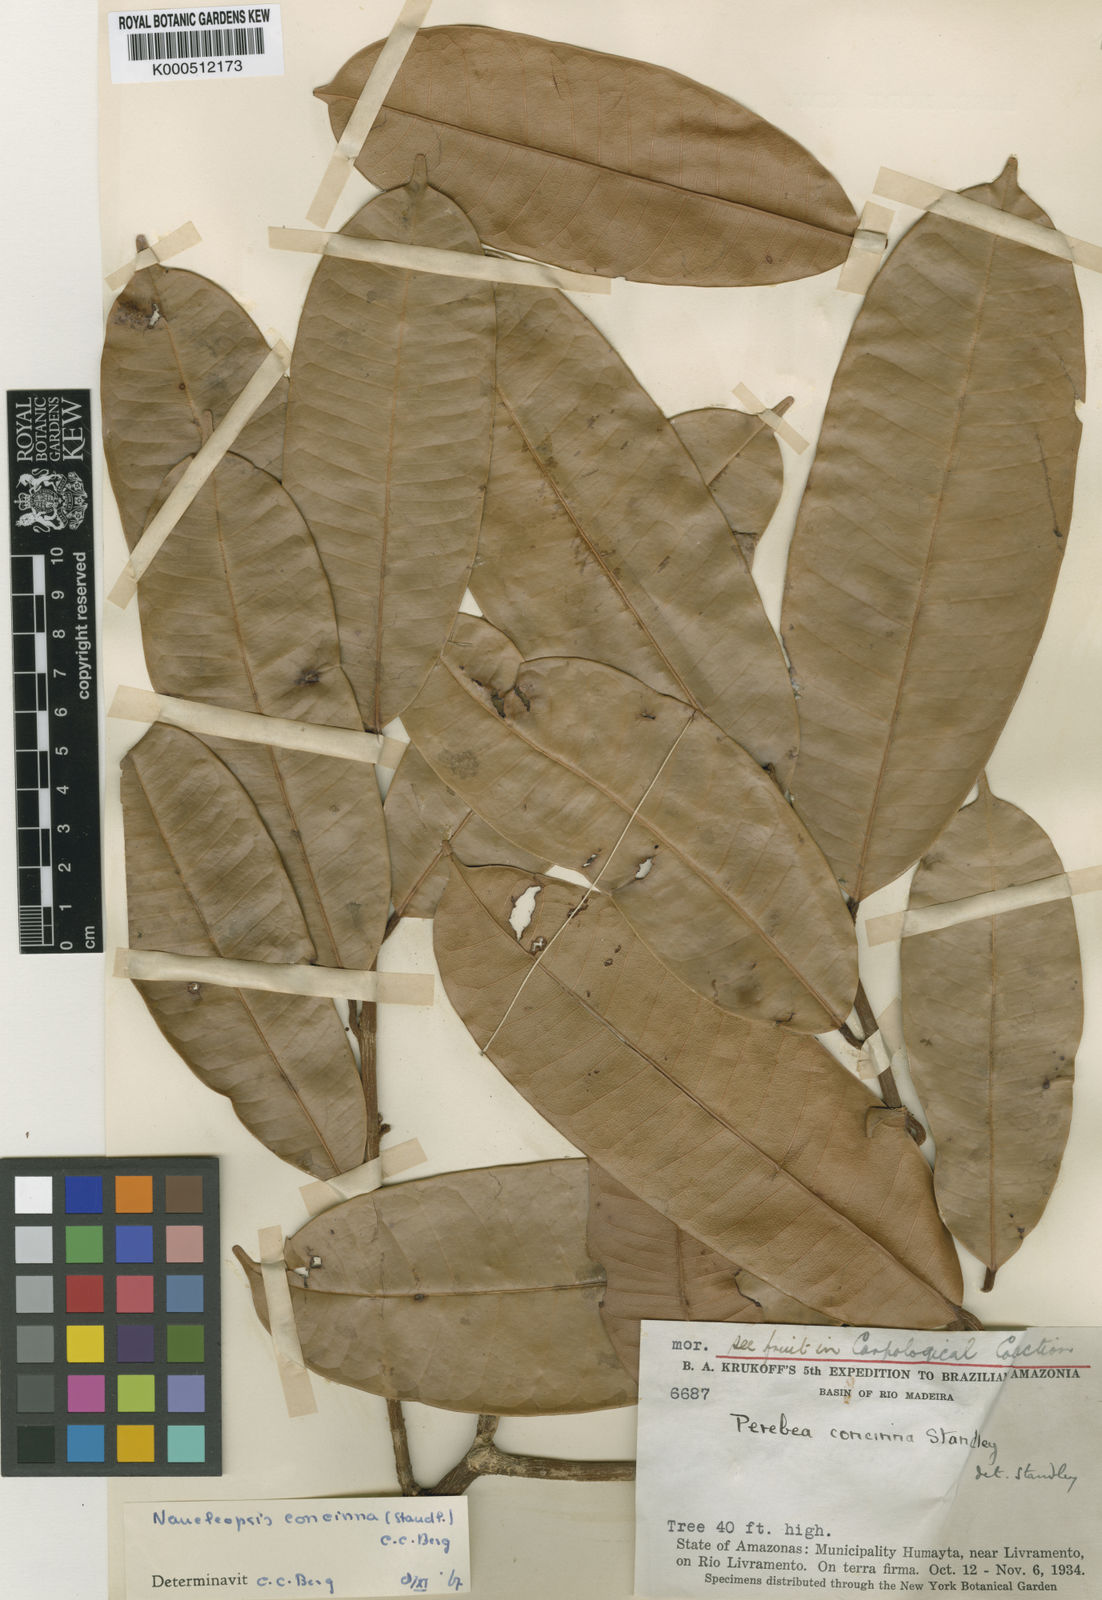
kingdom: Plantae
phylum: Tracheophyta
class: Magnoliopsida
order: Rosales
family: Moraceae
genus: Naucleopsis
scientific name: Naucleopsis concinna
